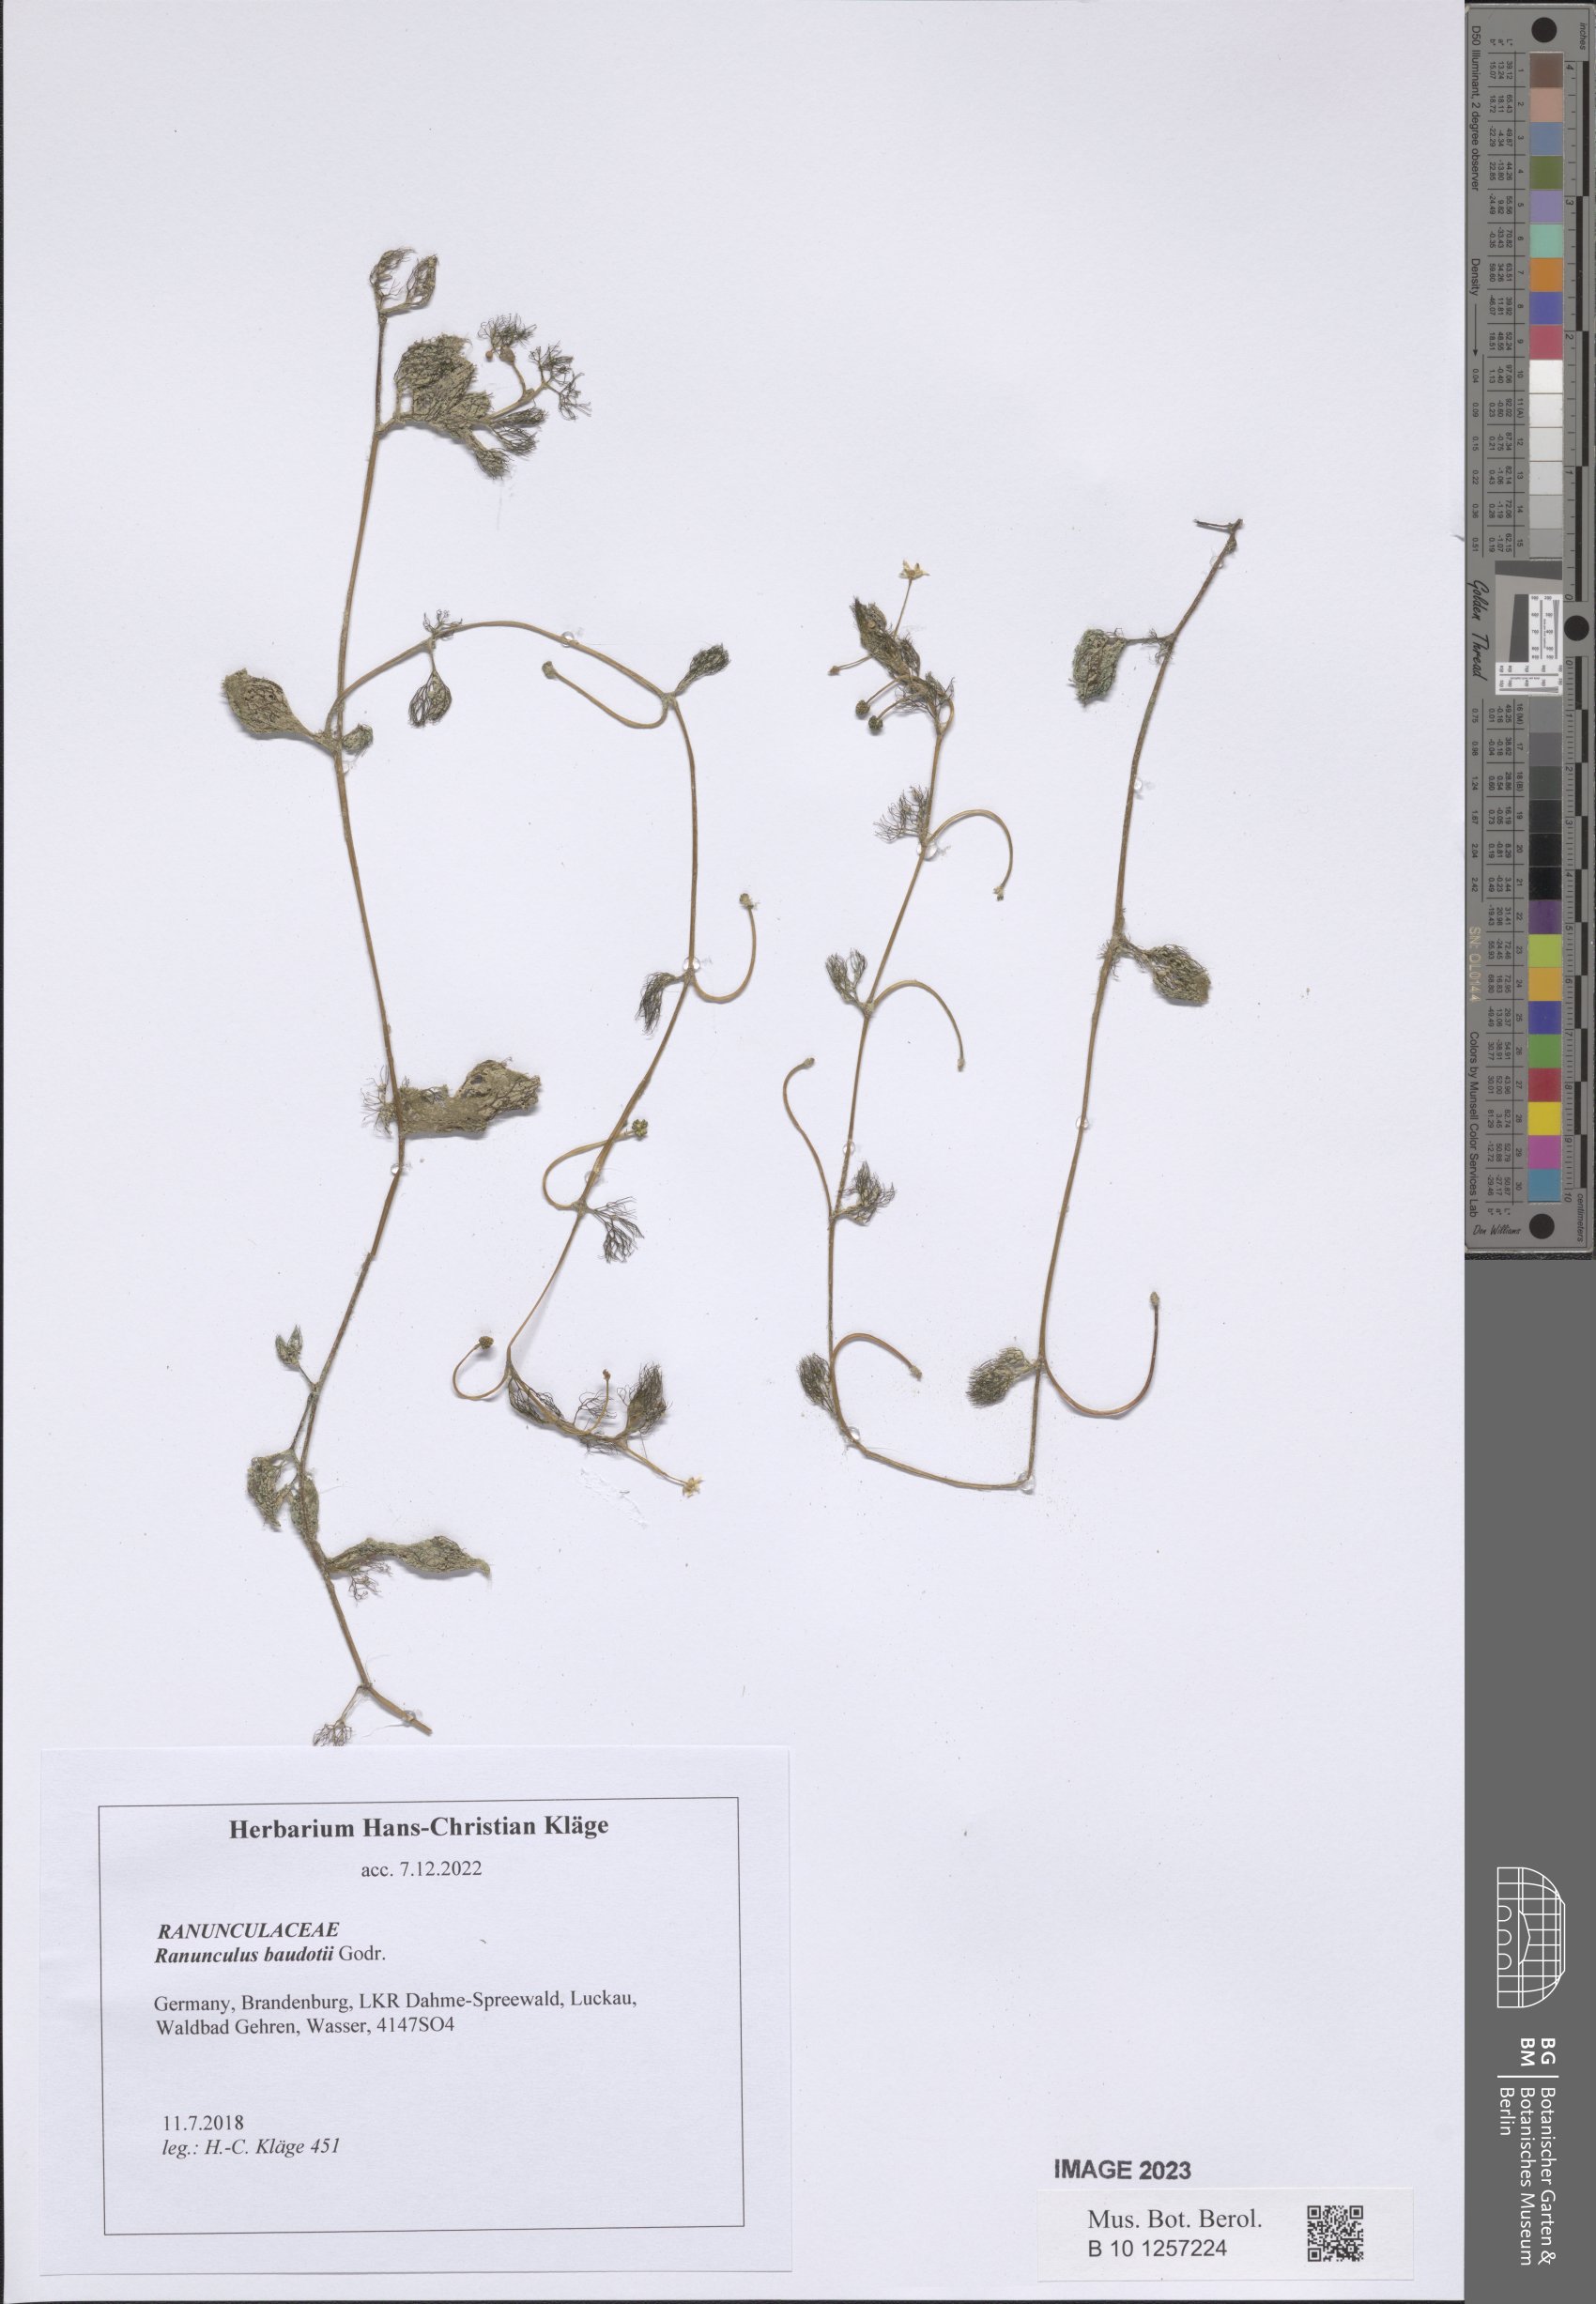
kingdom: Plantae
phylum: Tracheophyta
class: Magnoliopsida
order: Ranunculales
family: Ranunculaceae
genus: Ranunculus
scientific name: Ranunculus peltatus
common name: Pond water-crowfoot
